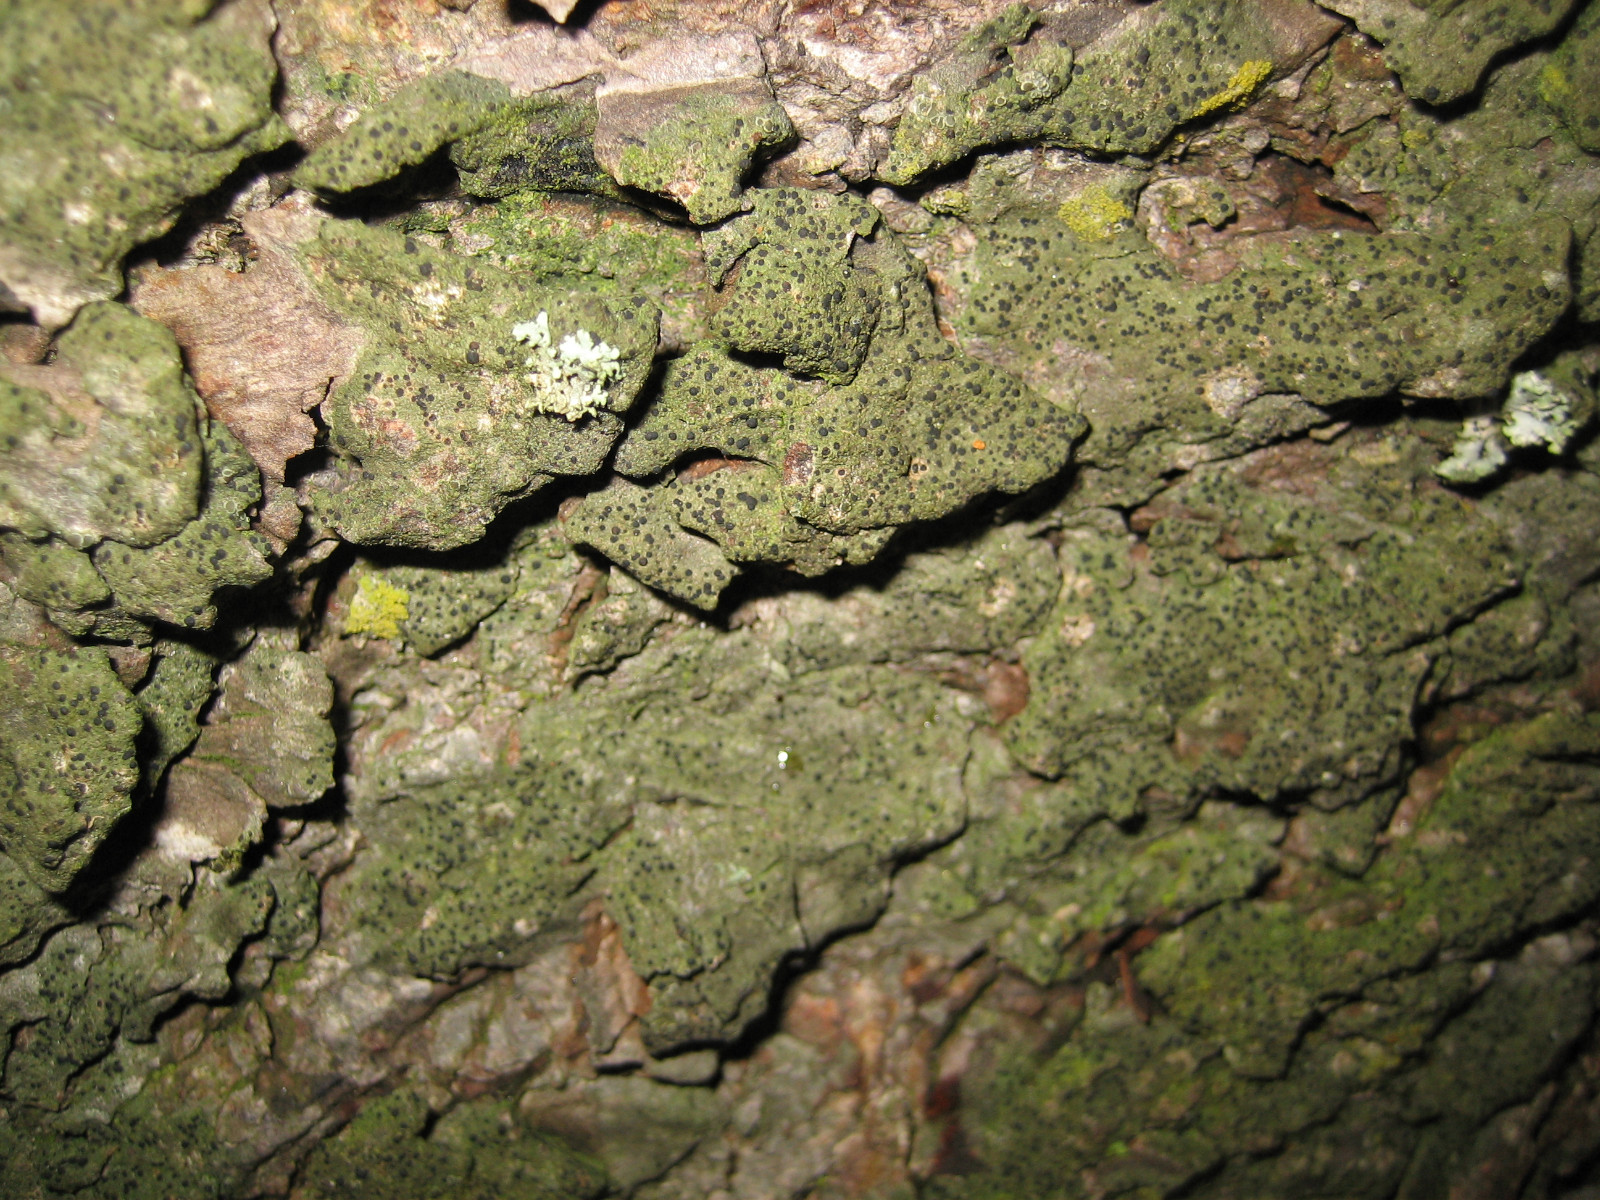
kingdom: Fungi
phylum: Ascomycota
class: Lecanoromycetes
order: Caliciales
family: Caliciaceae
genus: Amandinea
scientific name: Amandinea punctata
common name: liden sortskivelav
